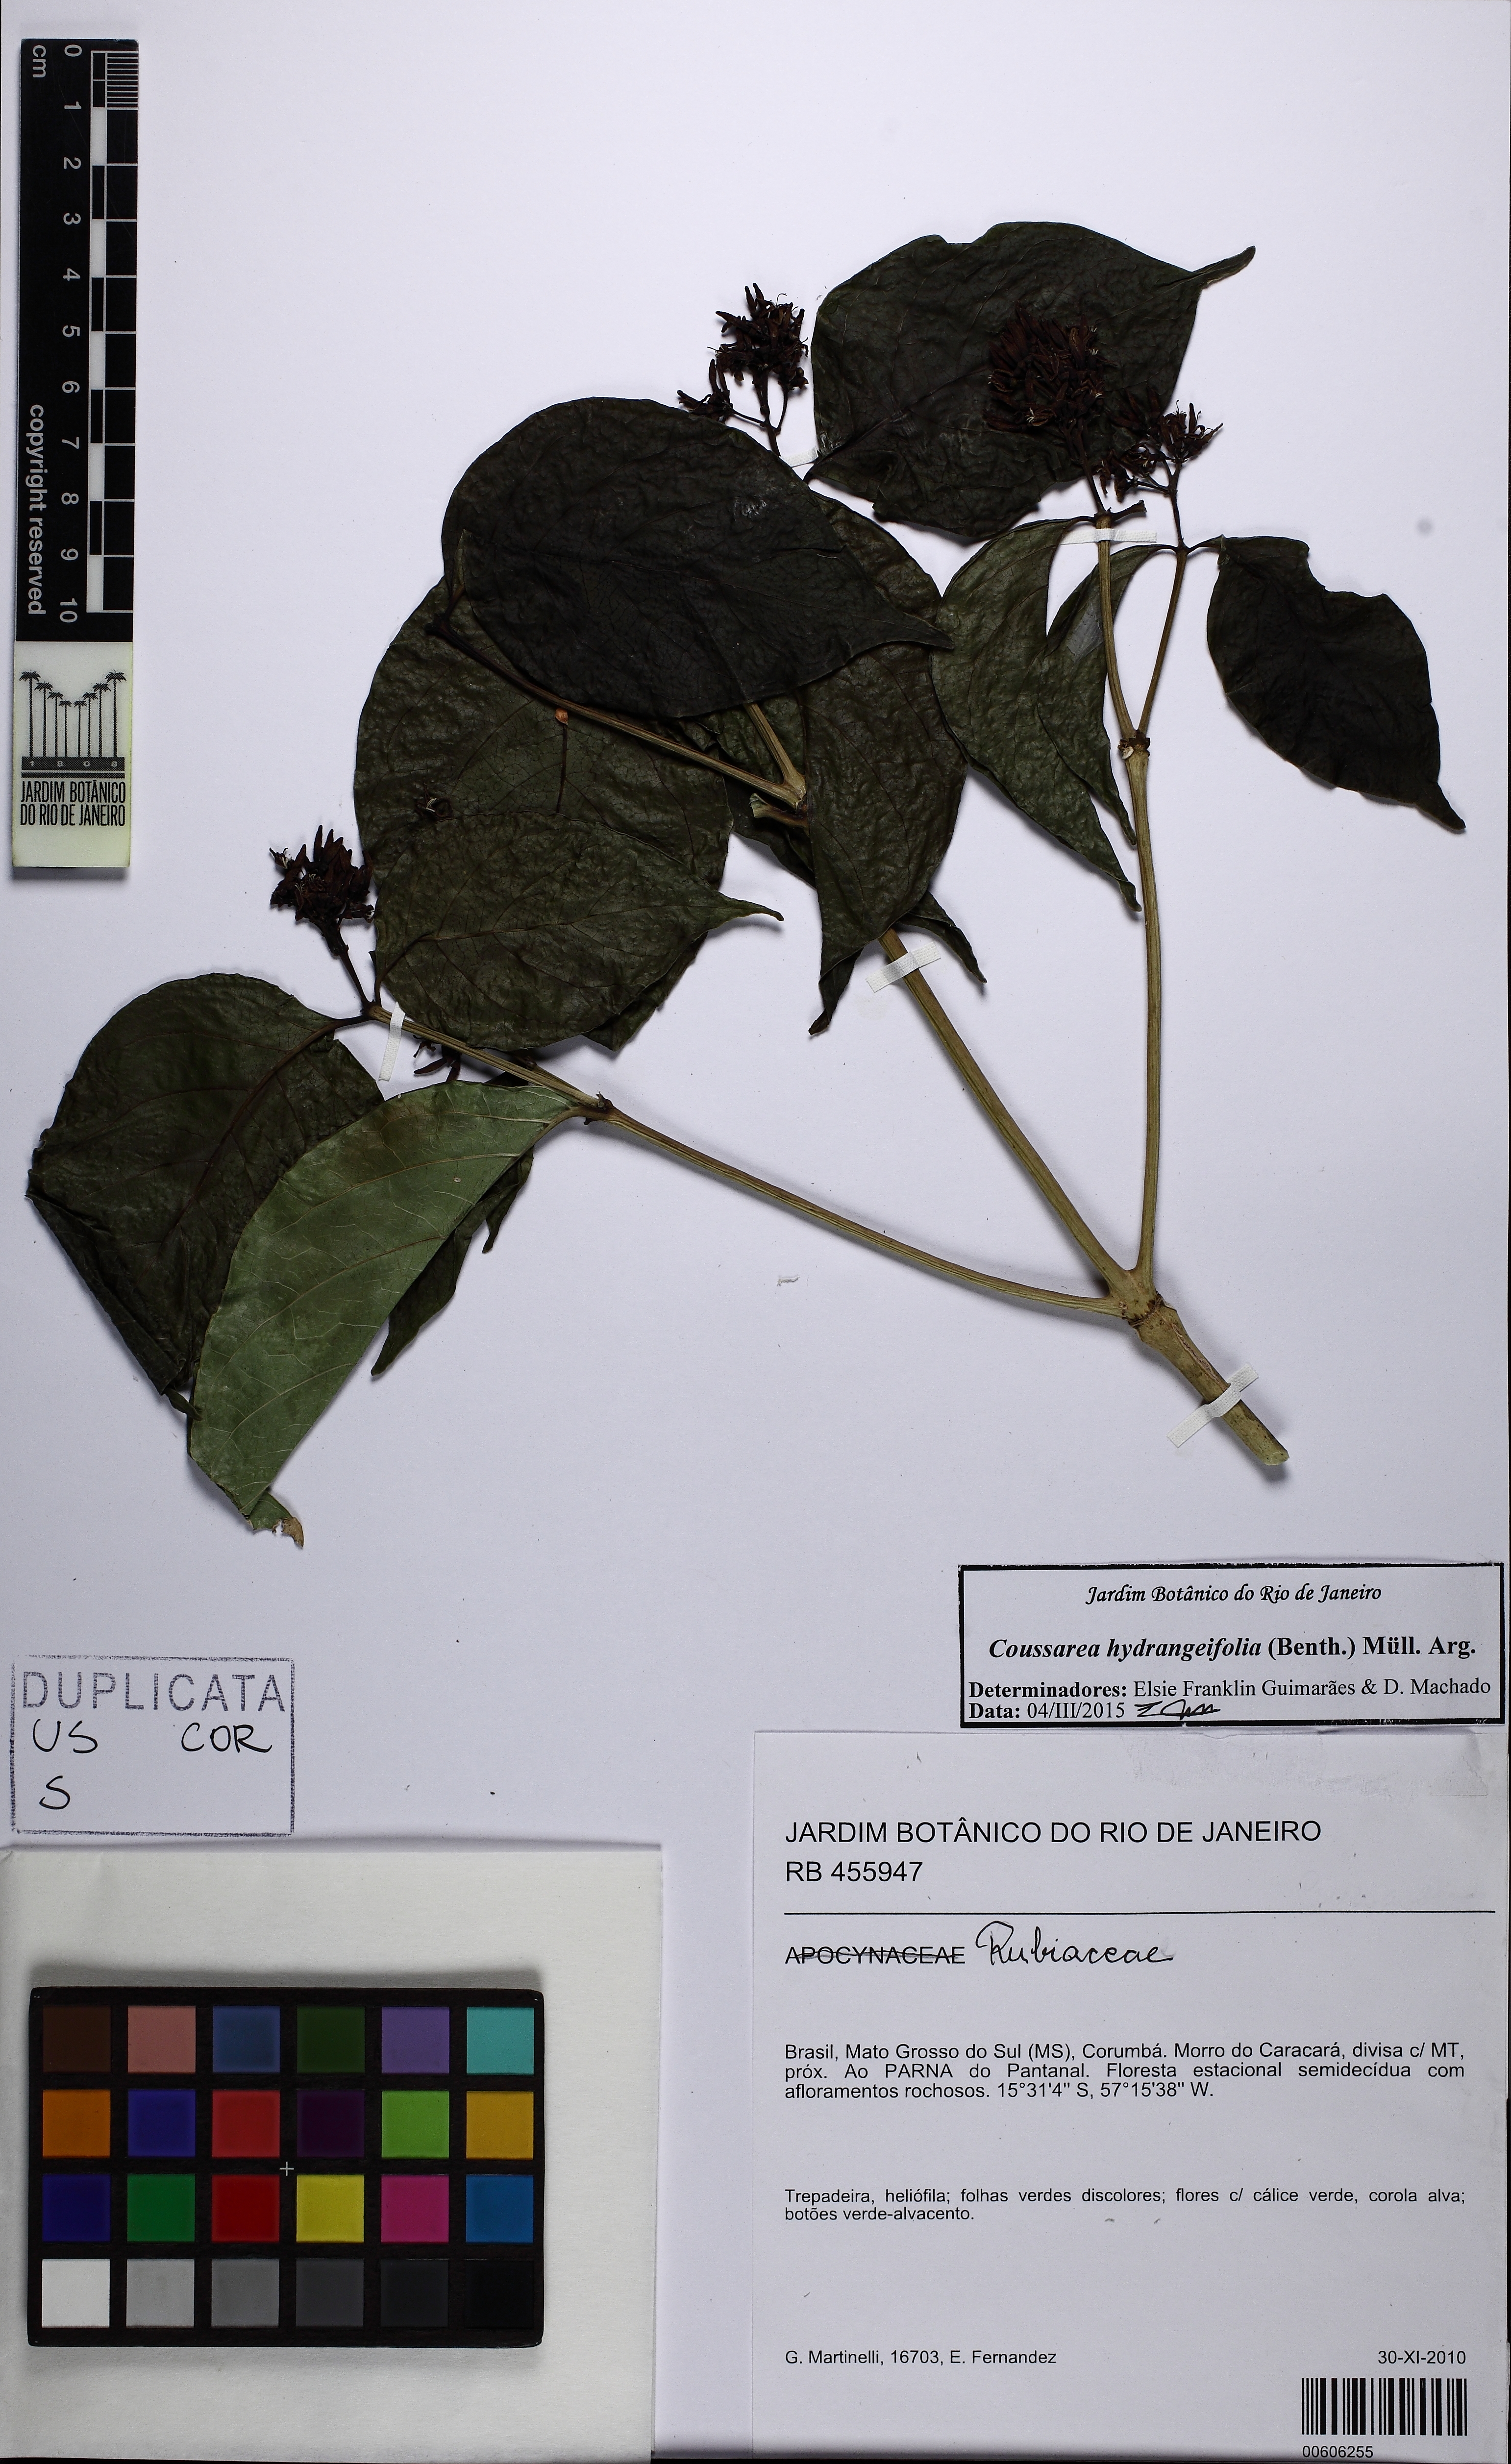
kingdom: Plantae
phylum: Tracheophyta
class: Magnoliopsida
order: Gentianales
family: Rubiaceae
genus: Coussarea
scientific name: Coussarea hydrangeifolia
